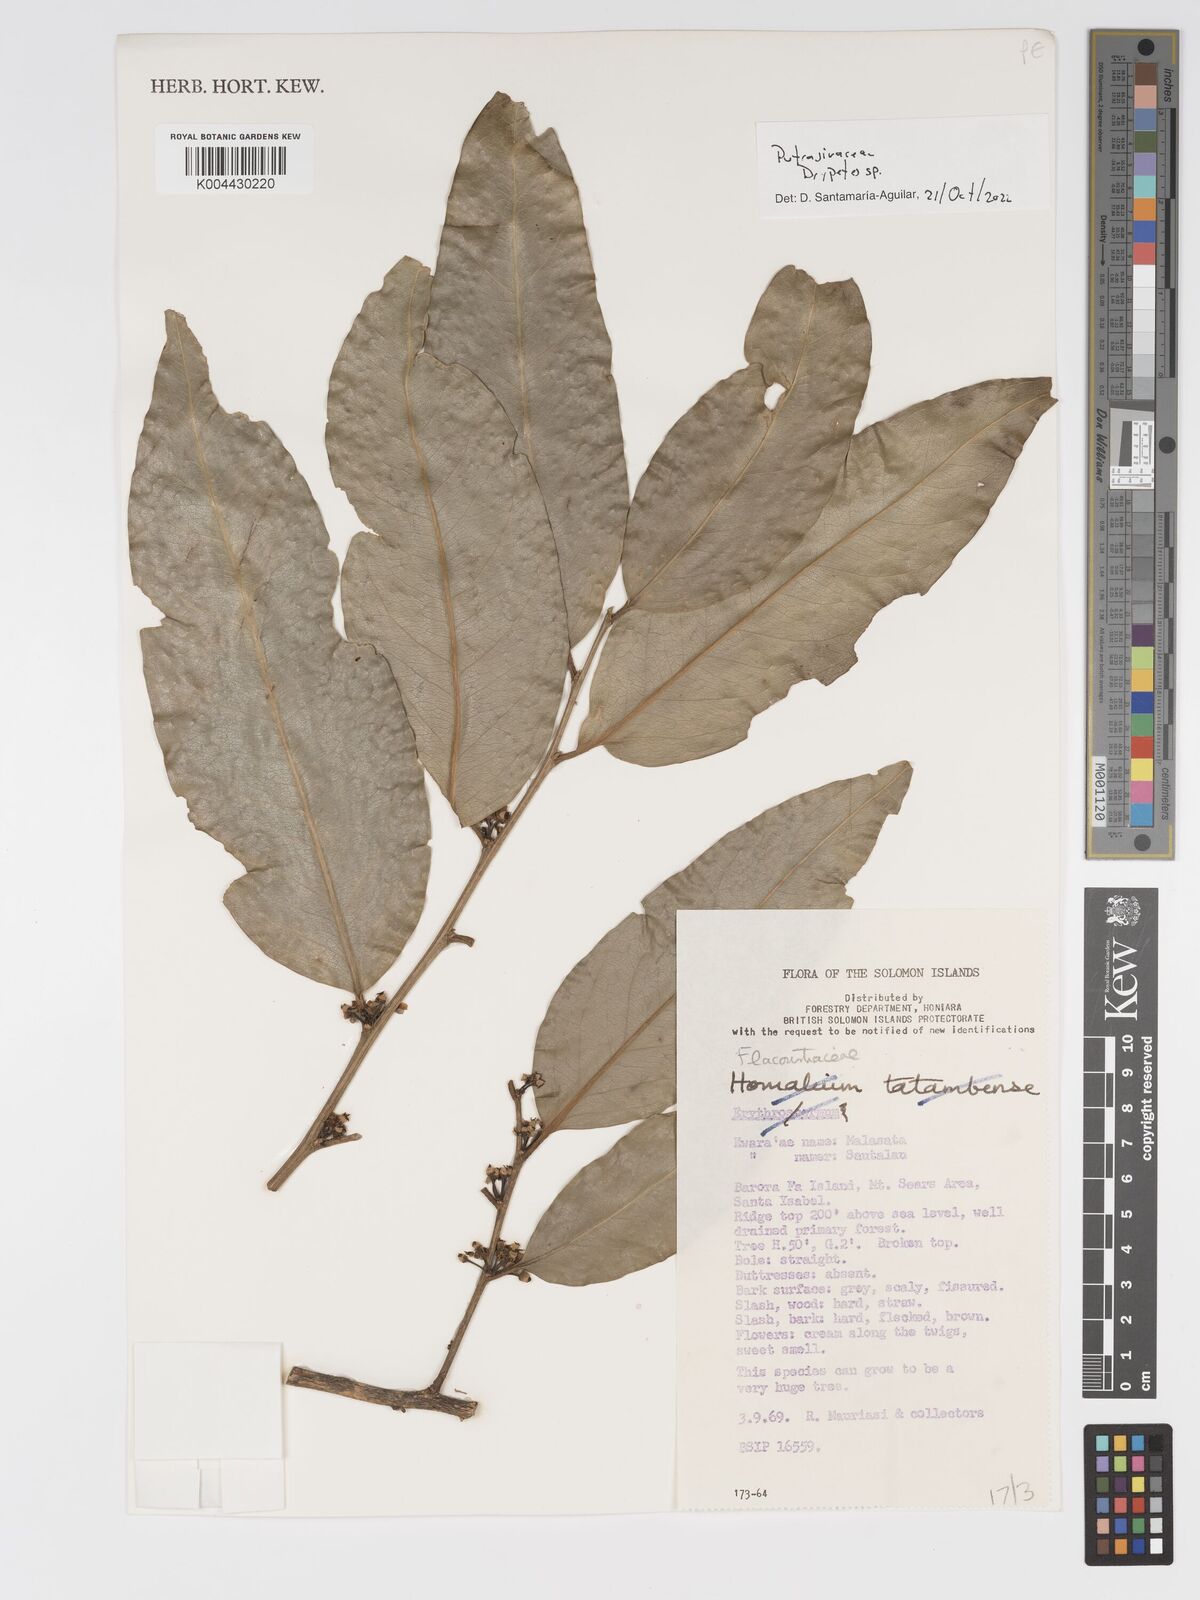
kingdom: Plantae
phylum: Tracheophyta
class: Magnoliopsida
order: Malpighiales
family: Putranjivaceae
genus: Drypetes
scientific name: Drypetes
